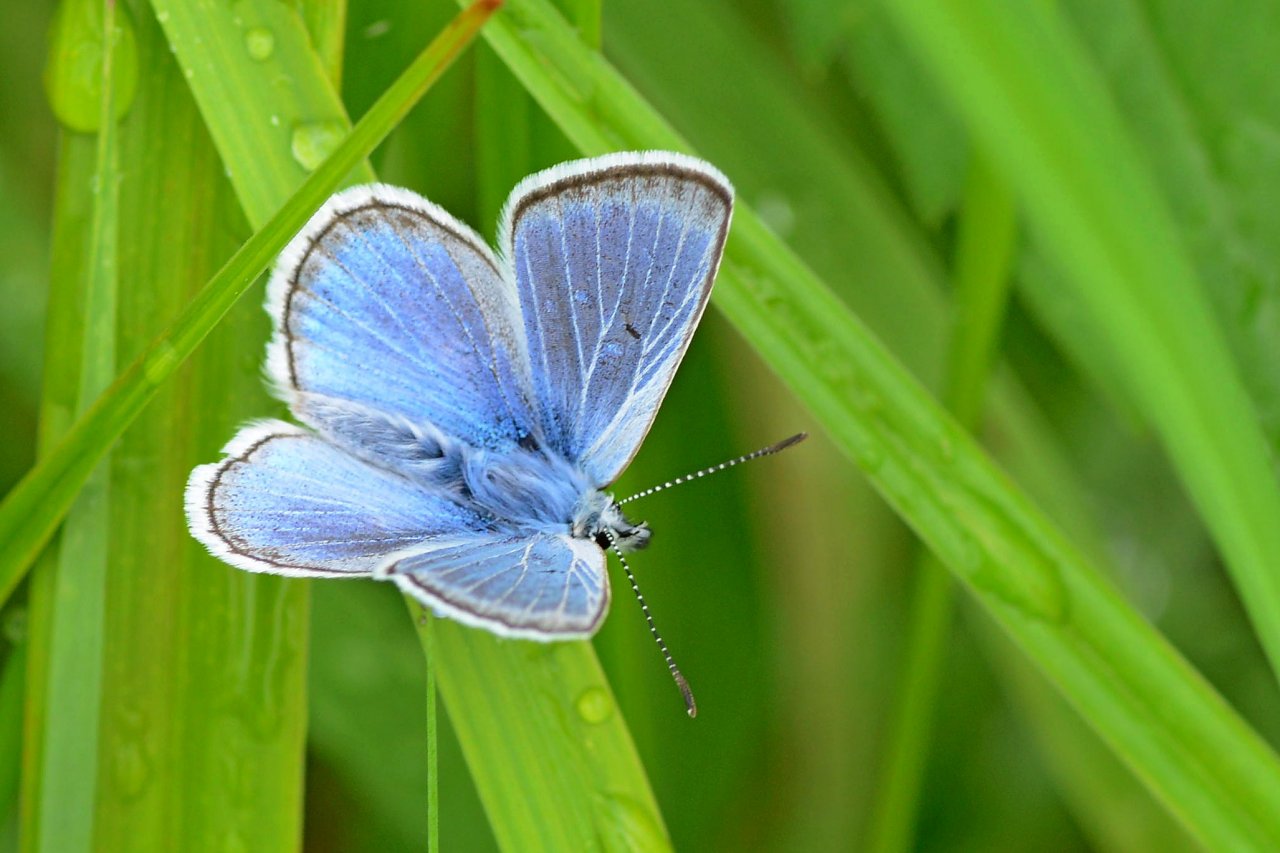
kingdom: Animalia
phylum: Arthropoda
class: Insecta
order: Lepidoptera
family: Lycaenidae
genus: Plebejus
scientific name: Plebejus saepiolus
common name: Greenish Blue
